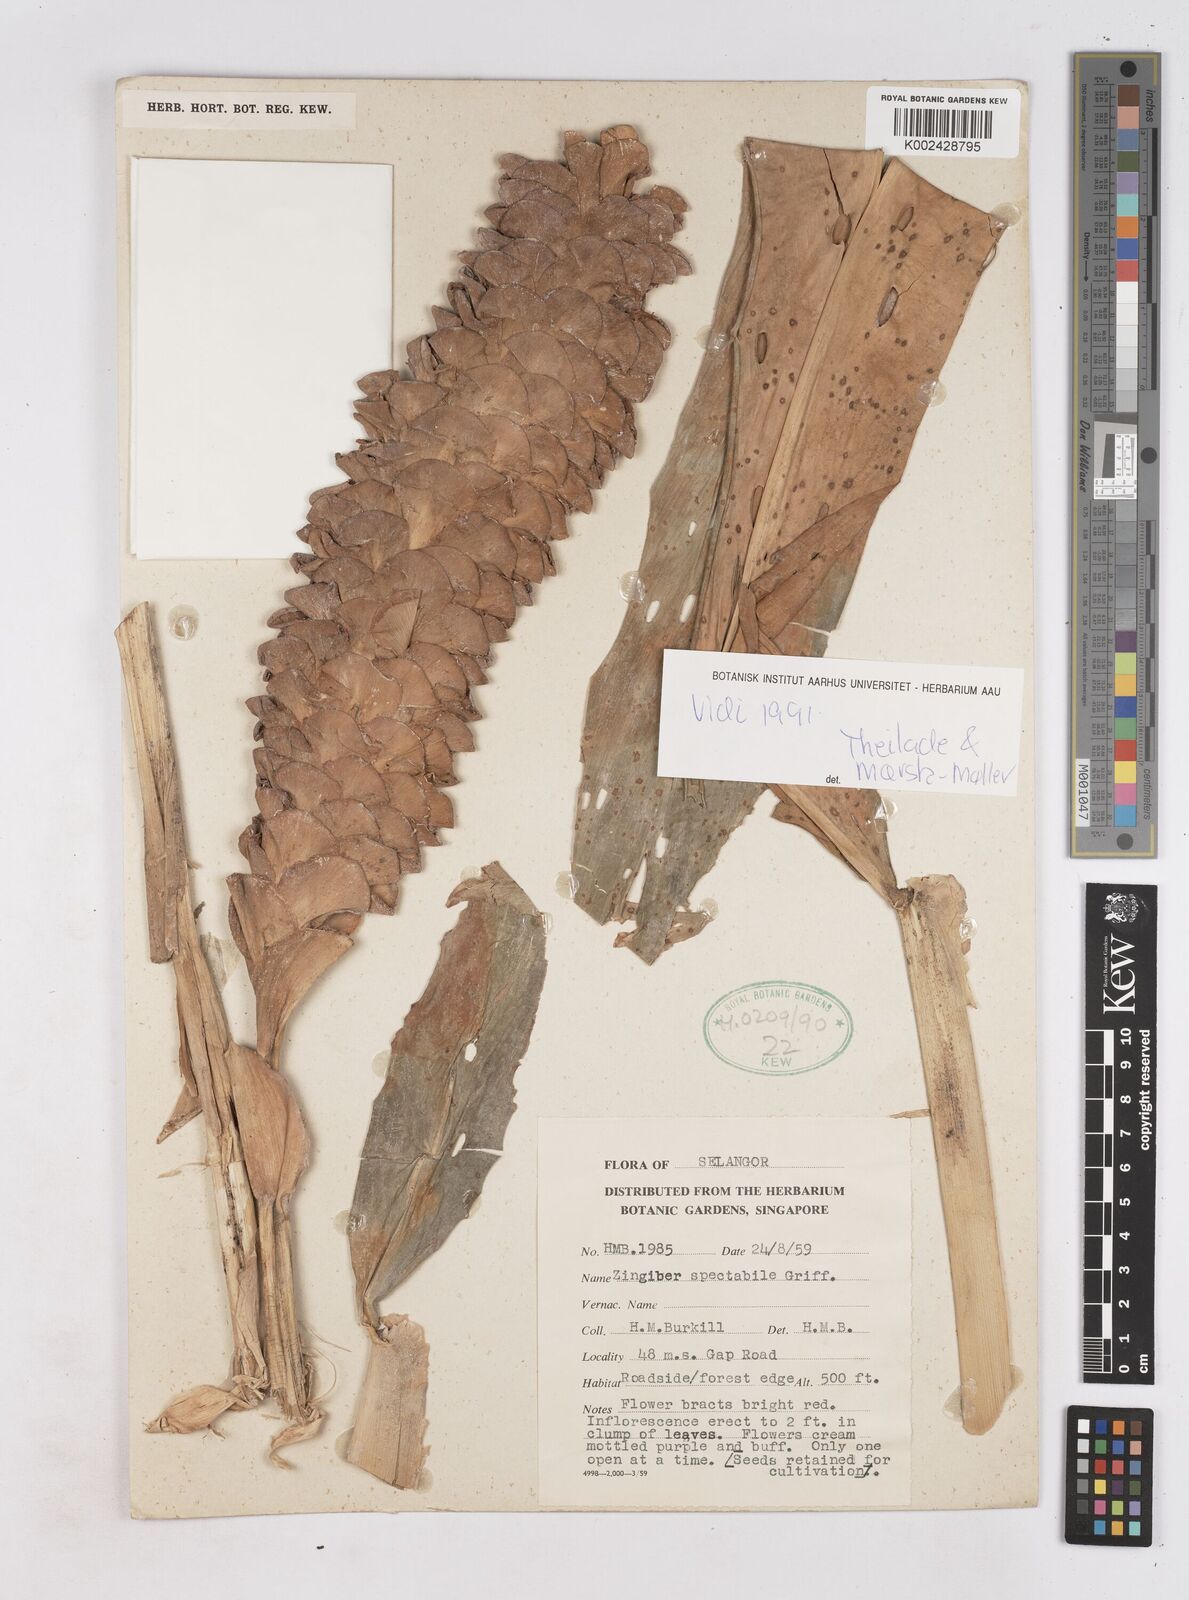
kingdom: Plantae
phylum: Tracheophyta
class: Liliopsida
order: Zingiberales
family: Zingiberaceae
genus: Zingiber
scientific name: Zingiber spectabile
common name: Beehive ginger
